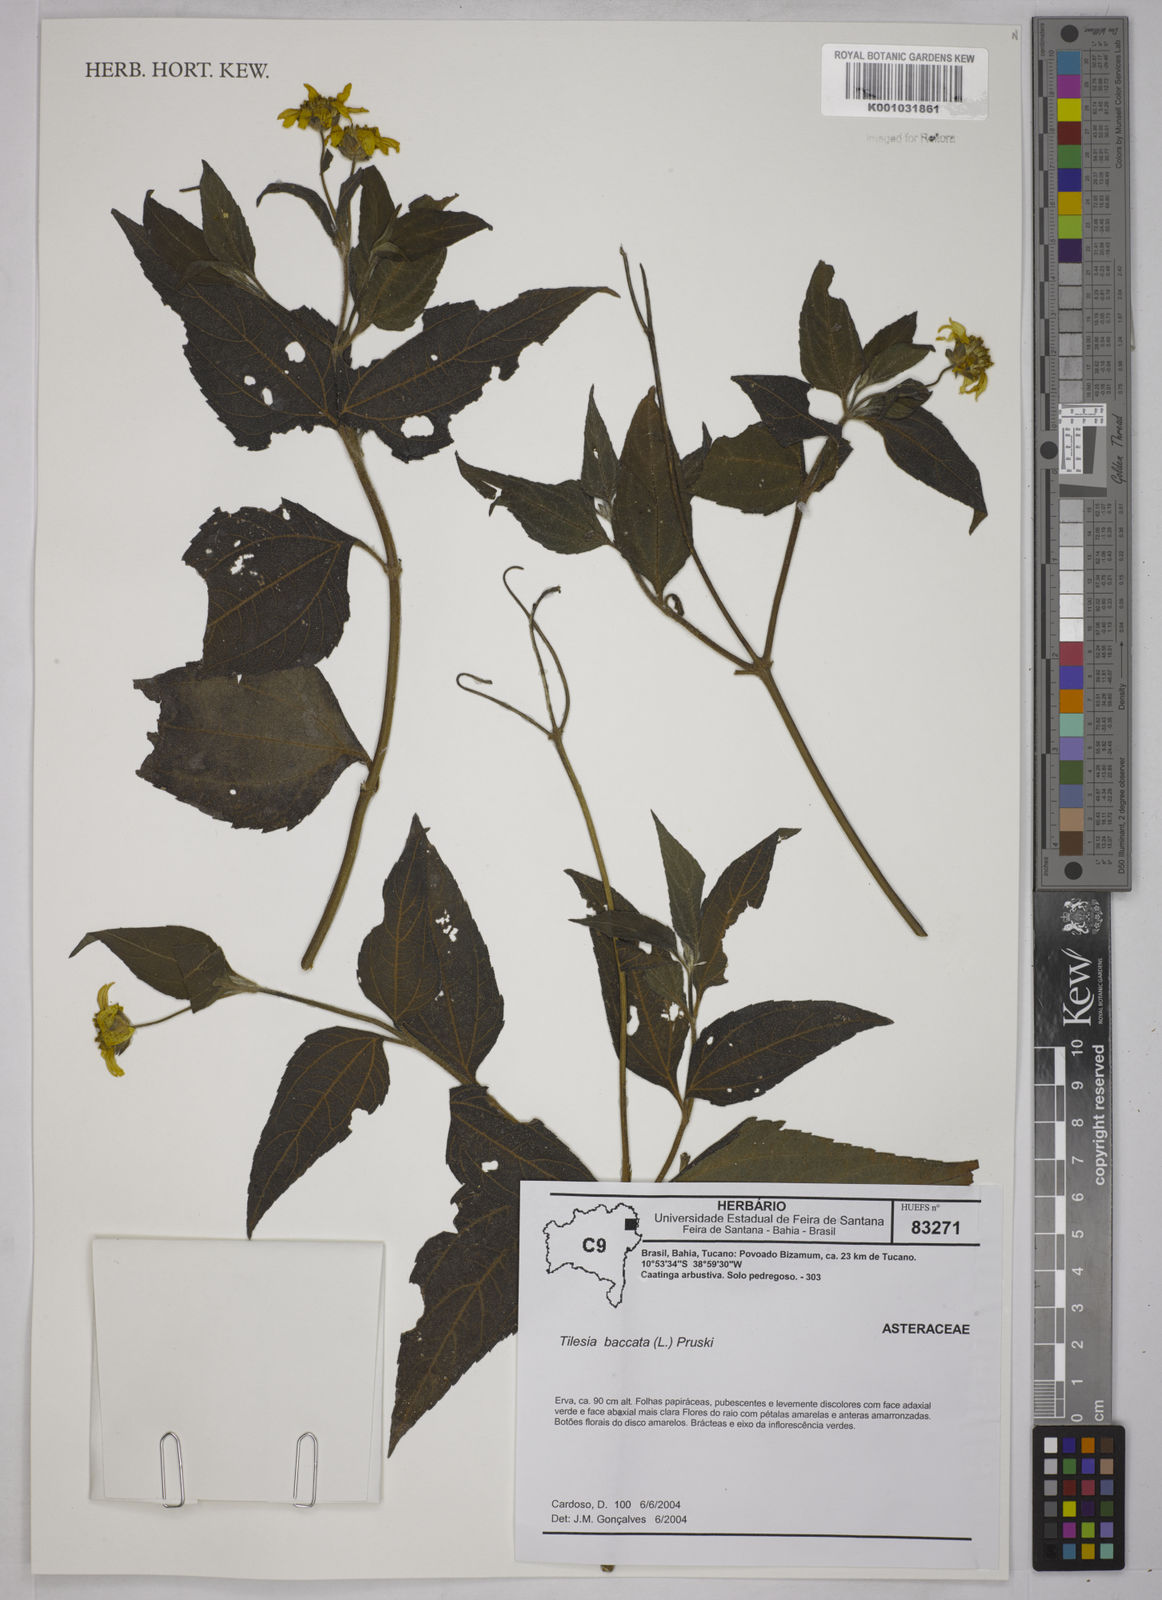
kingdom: Plantae
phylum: Tracheophyta
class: Magnoliopsida
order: Asterales
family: Asteraceae
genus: Tilesia
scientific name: Tilesia baccata
